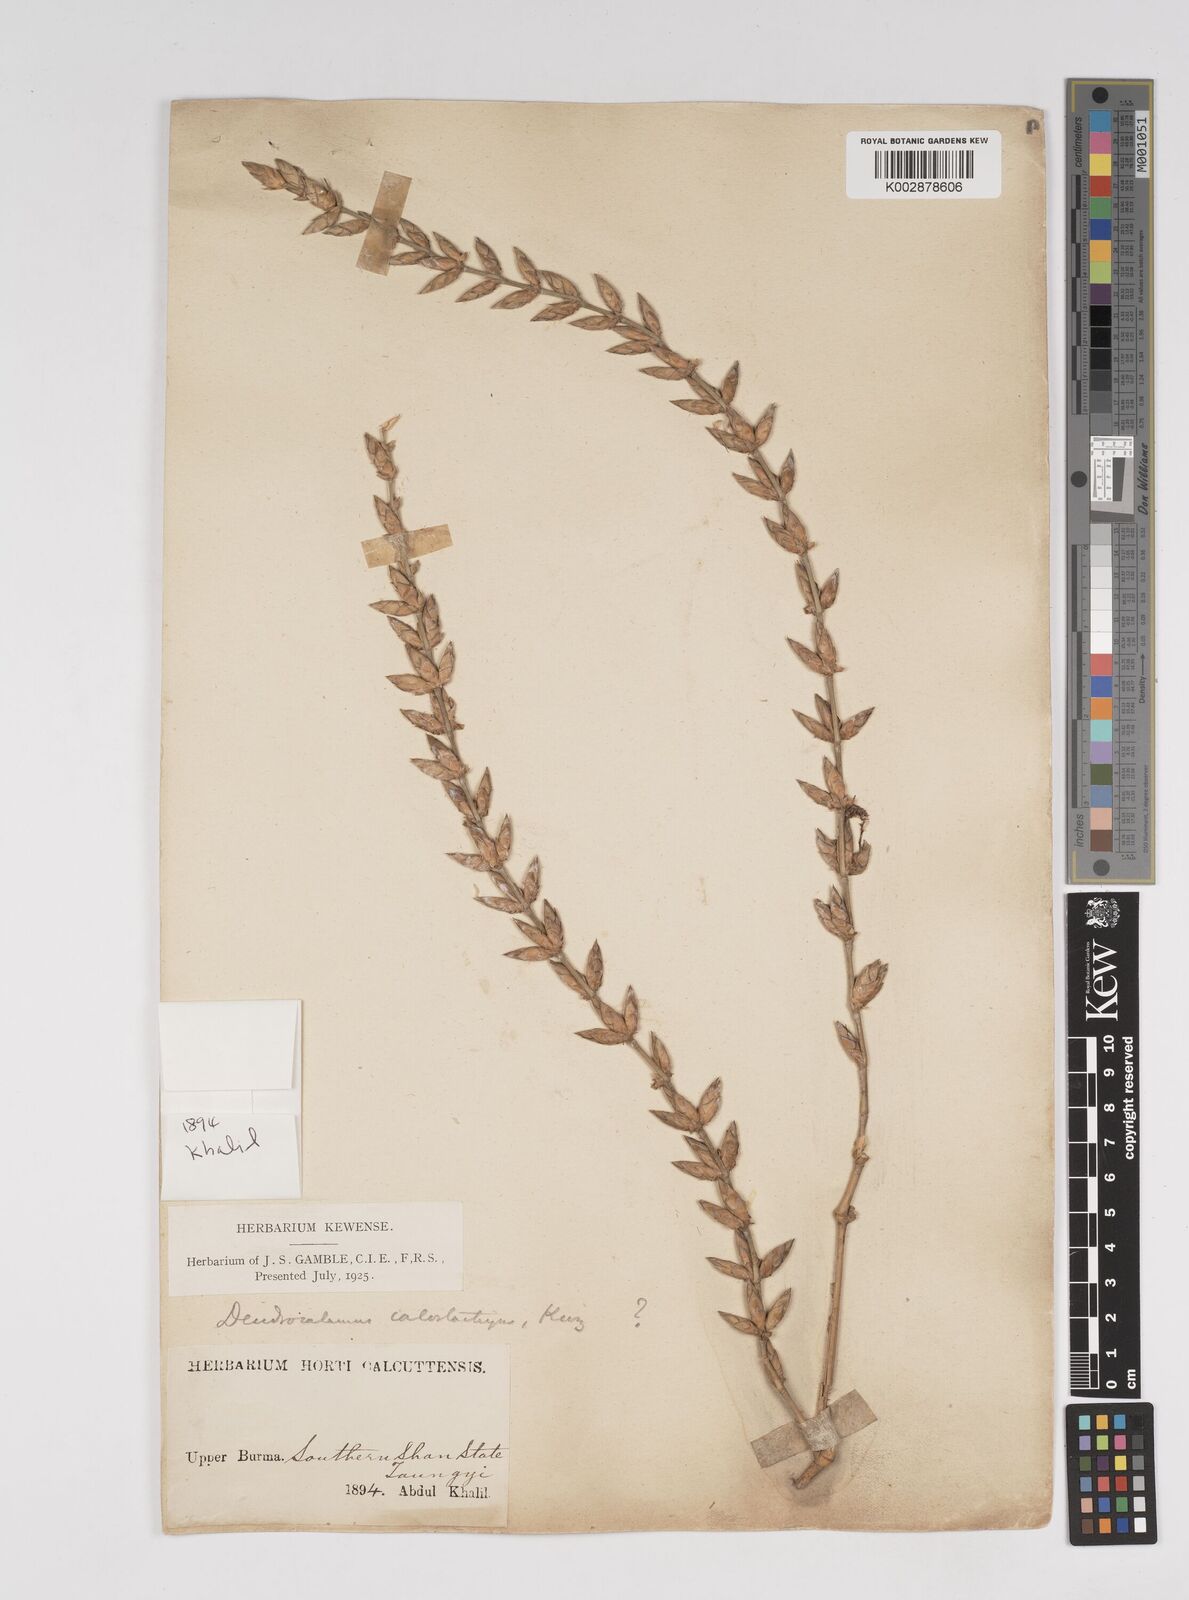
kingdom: Plantae
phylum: Tracheophyta
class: Liliopsida
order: Poales
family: Poaceae
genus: Dendrocalamus
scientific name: Dendrocalamus calostachyus
